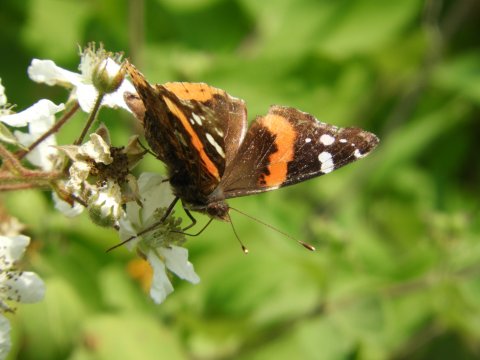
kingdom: Animalia
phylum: Arthropoda
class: Insecta
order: Lepidoptera
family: Nymphalidae
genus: Vanessa
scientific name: Vanessa atalanta
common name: Red Admiral
